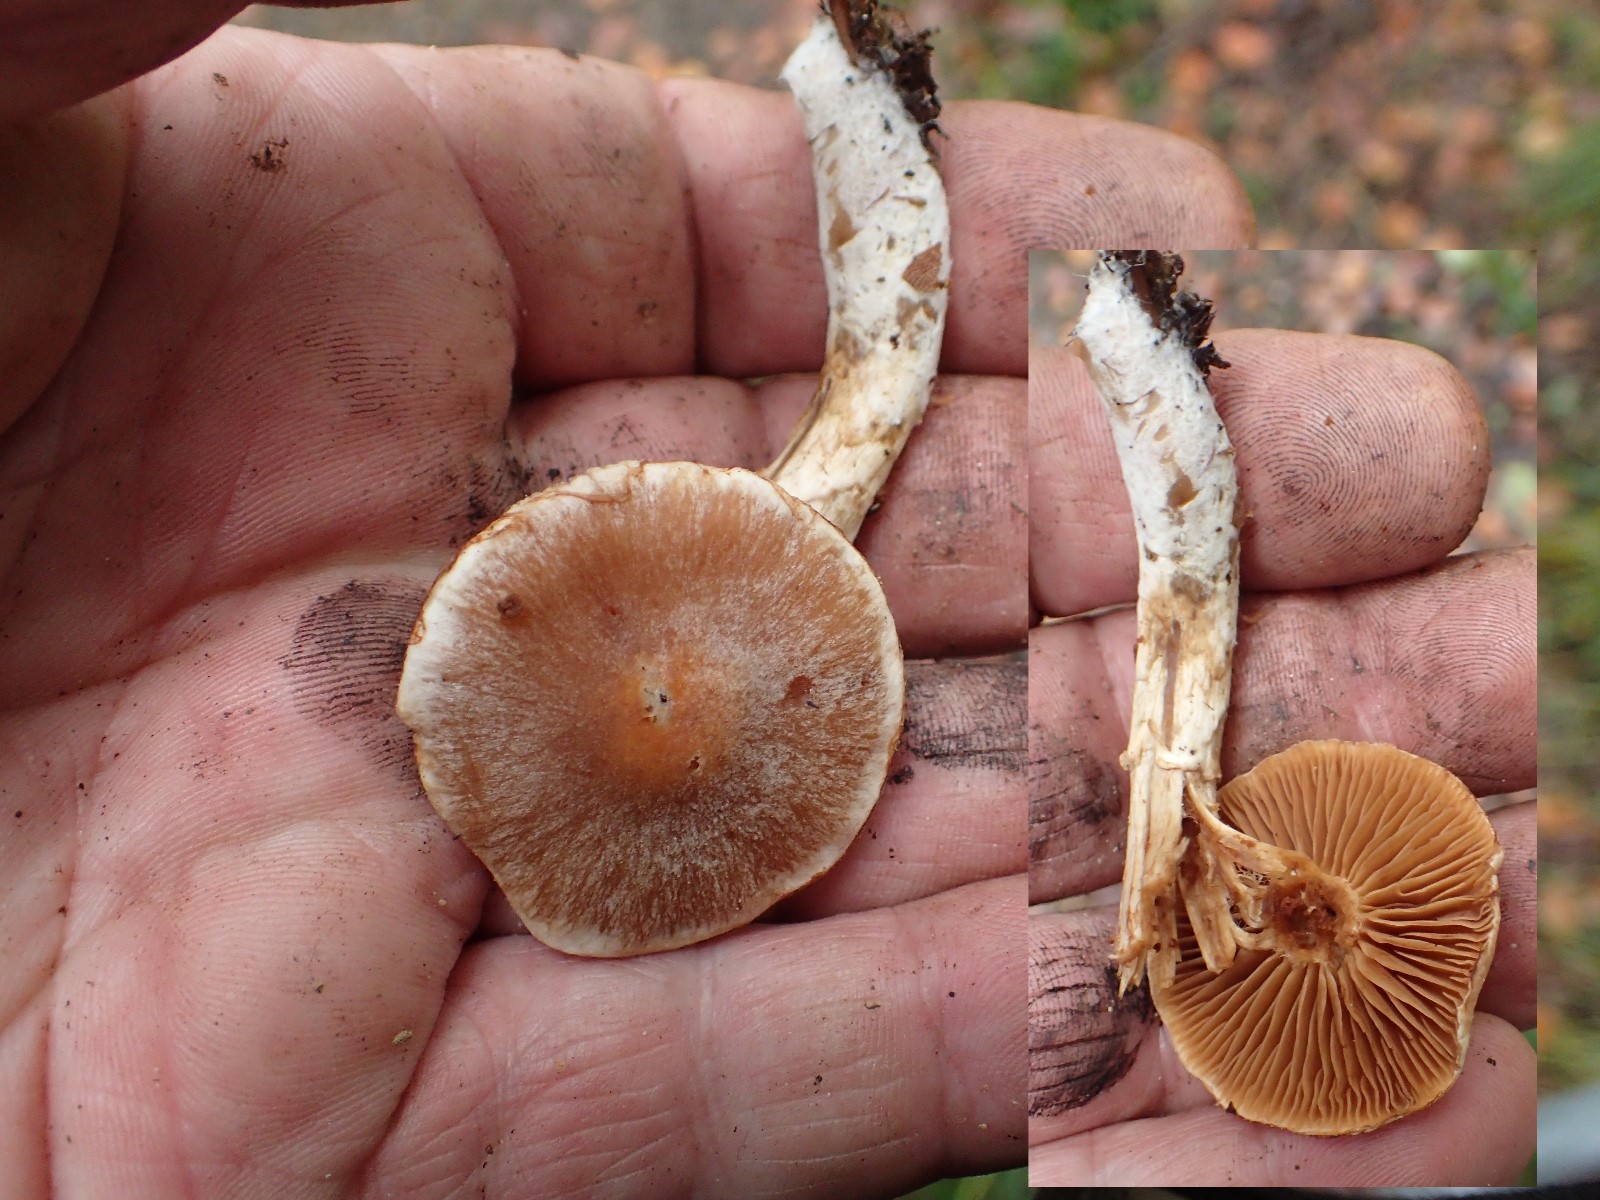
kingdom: Fungi
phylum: Basidiomycota
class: Agaricomycetes
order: Agaricales
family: Cortinariaceae
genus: Cortinarius
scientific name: Cortinarius
